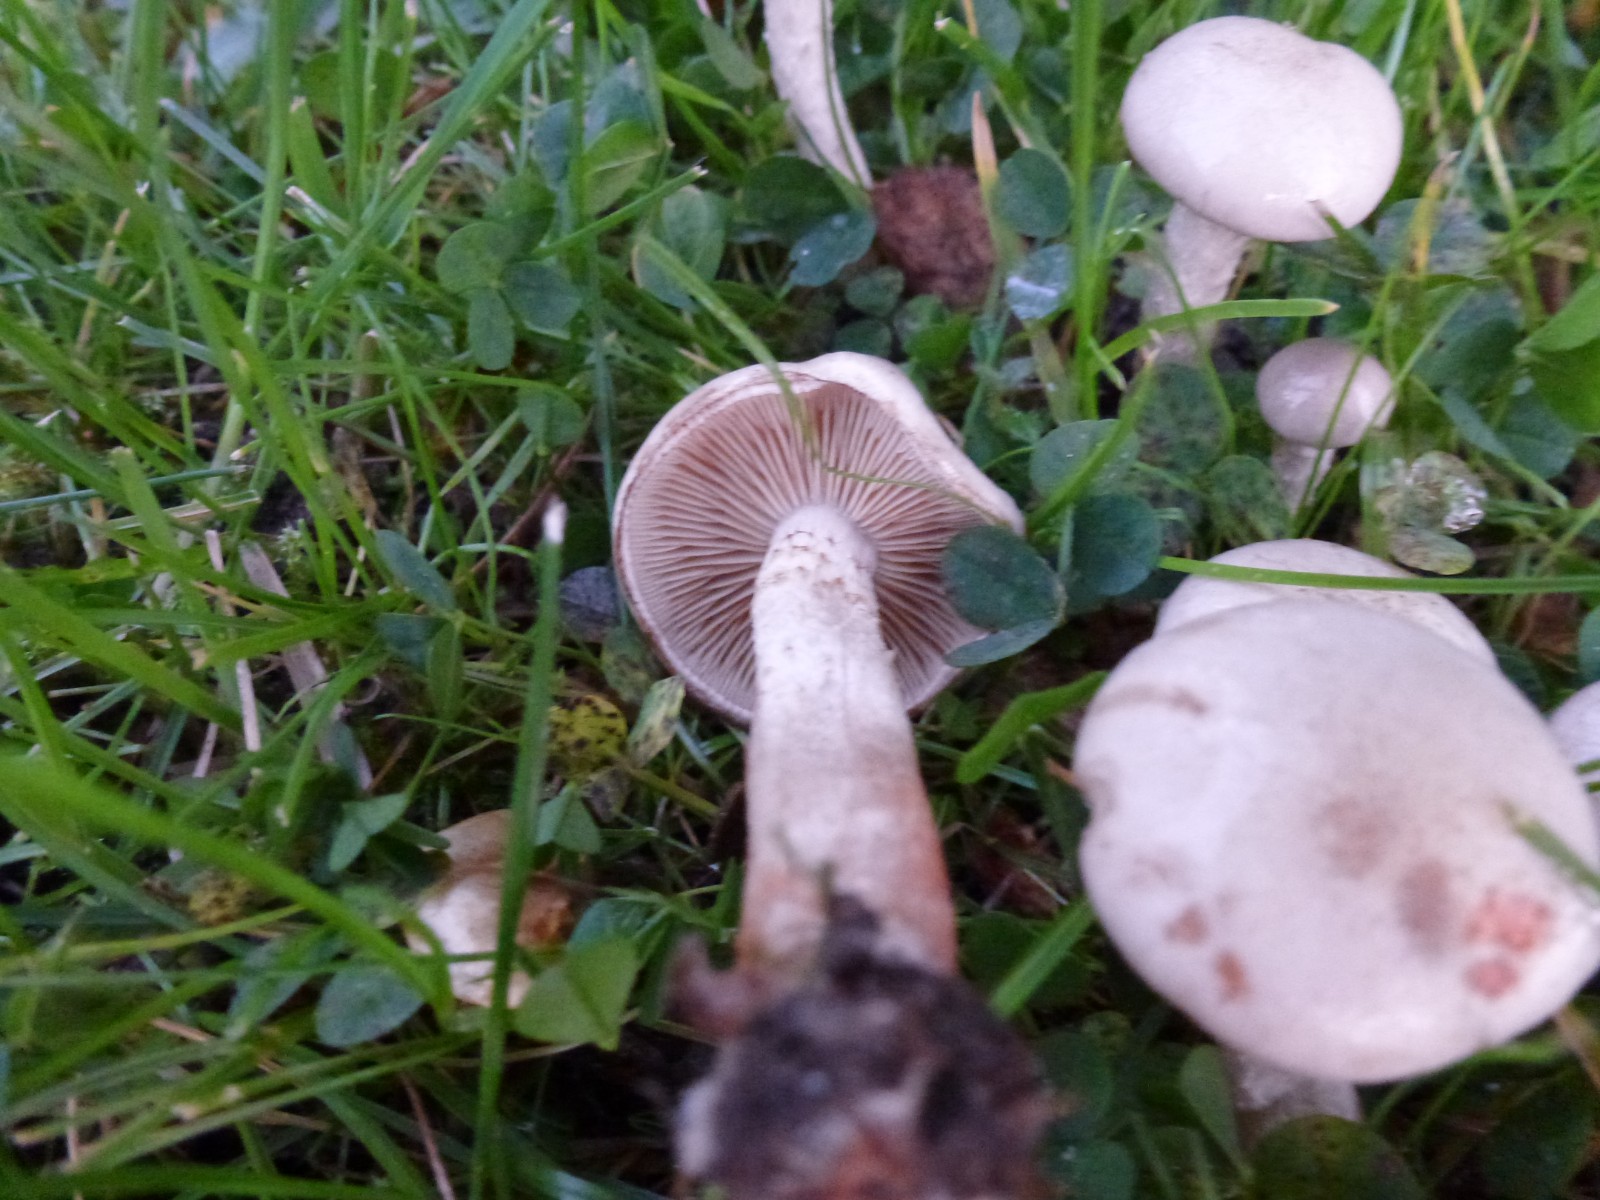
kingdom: Fungi
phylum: Basidiomycota
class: Agaricomycetes
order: Agaricales
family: Strophariaceae
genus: Pholiota
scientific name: Pholiota gummosa
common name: grøngul skælhat
